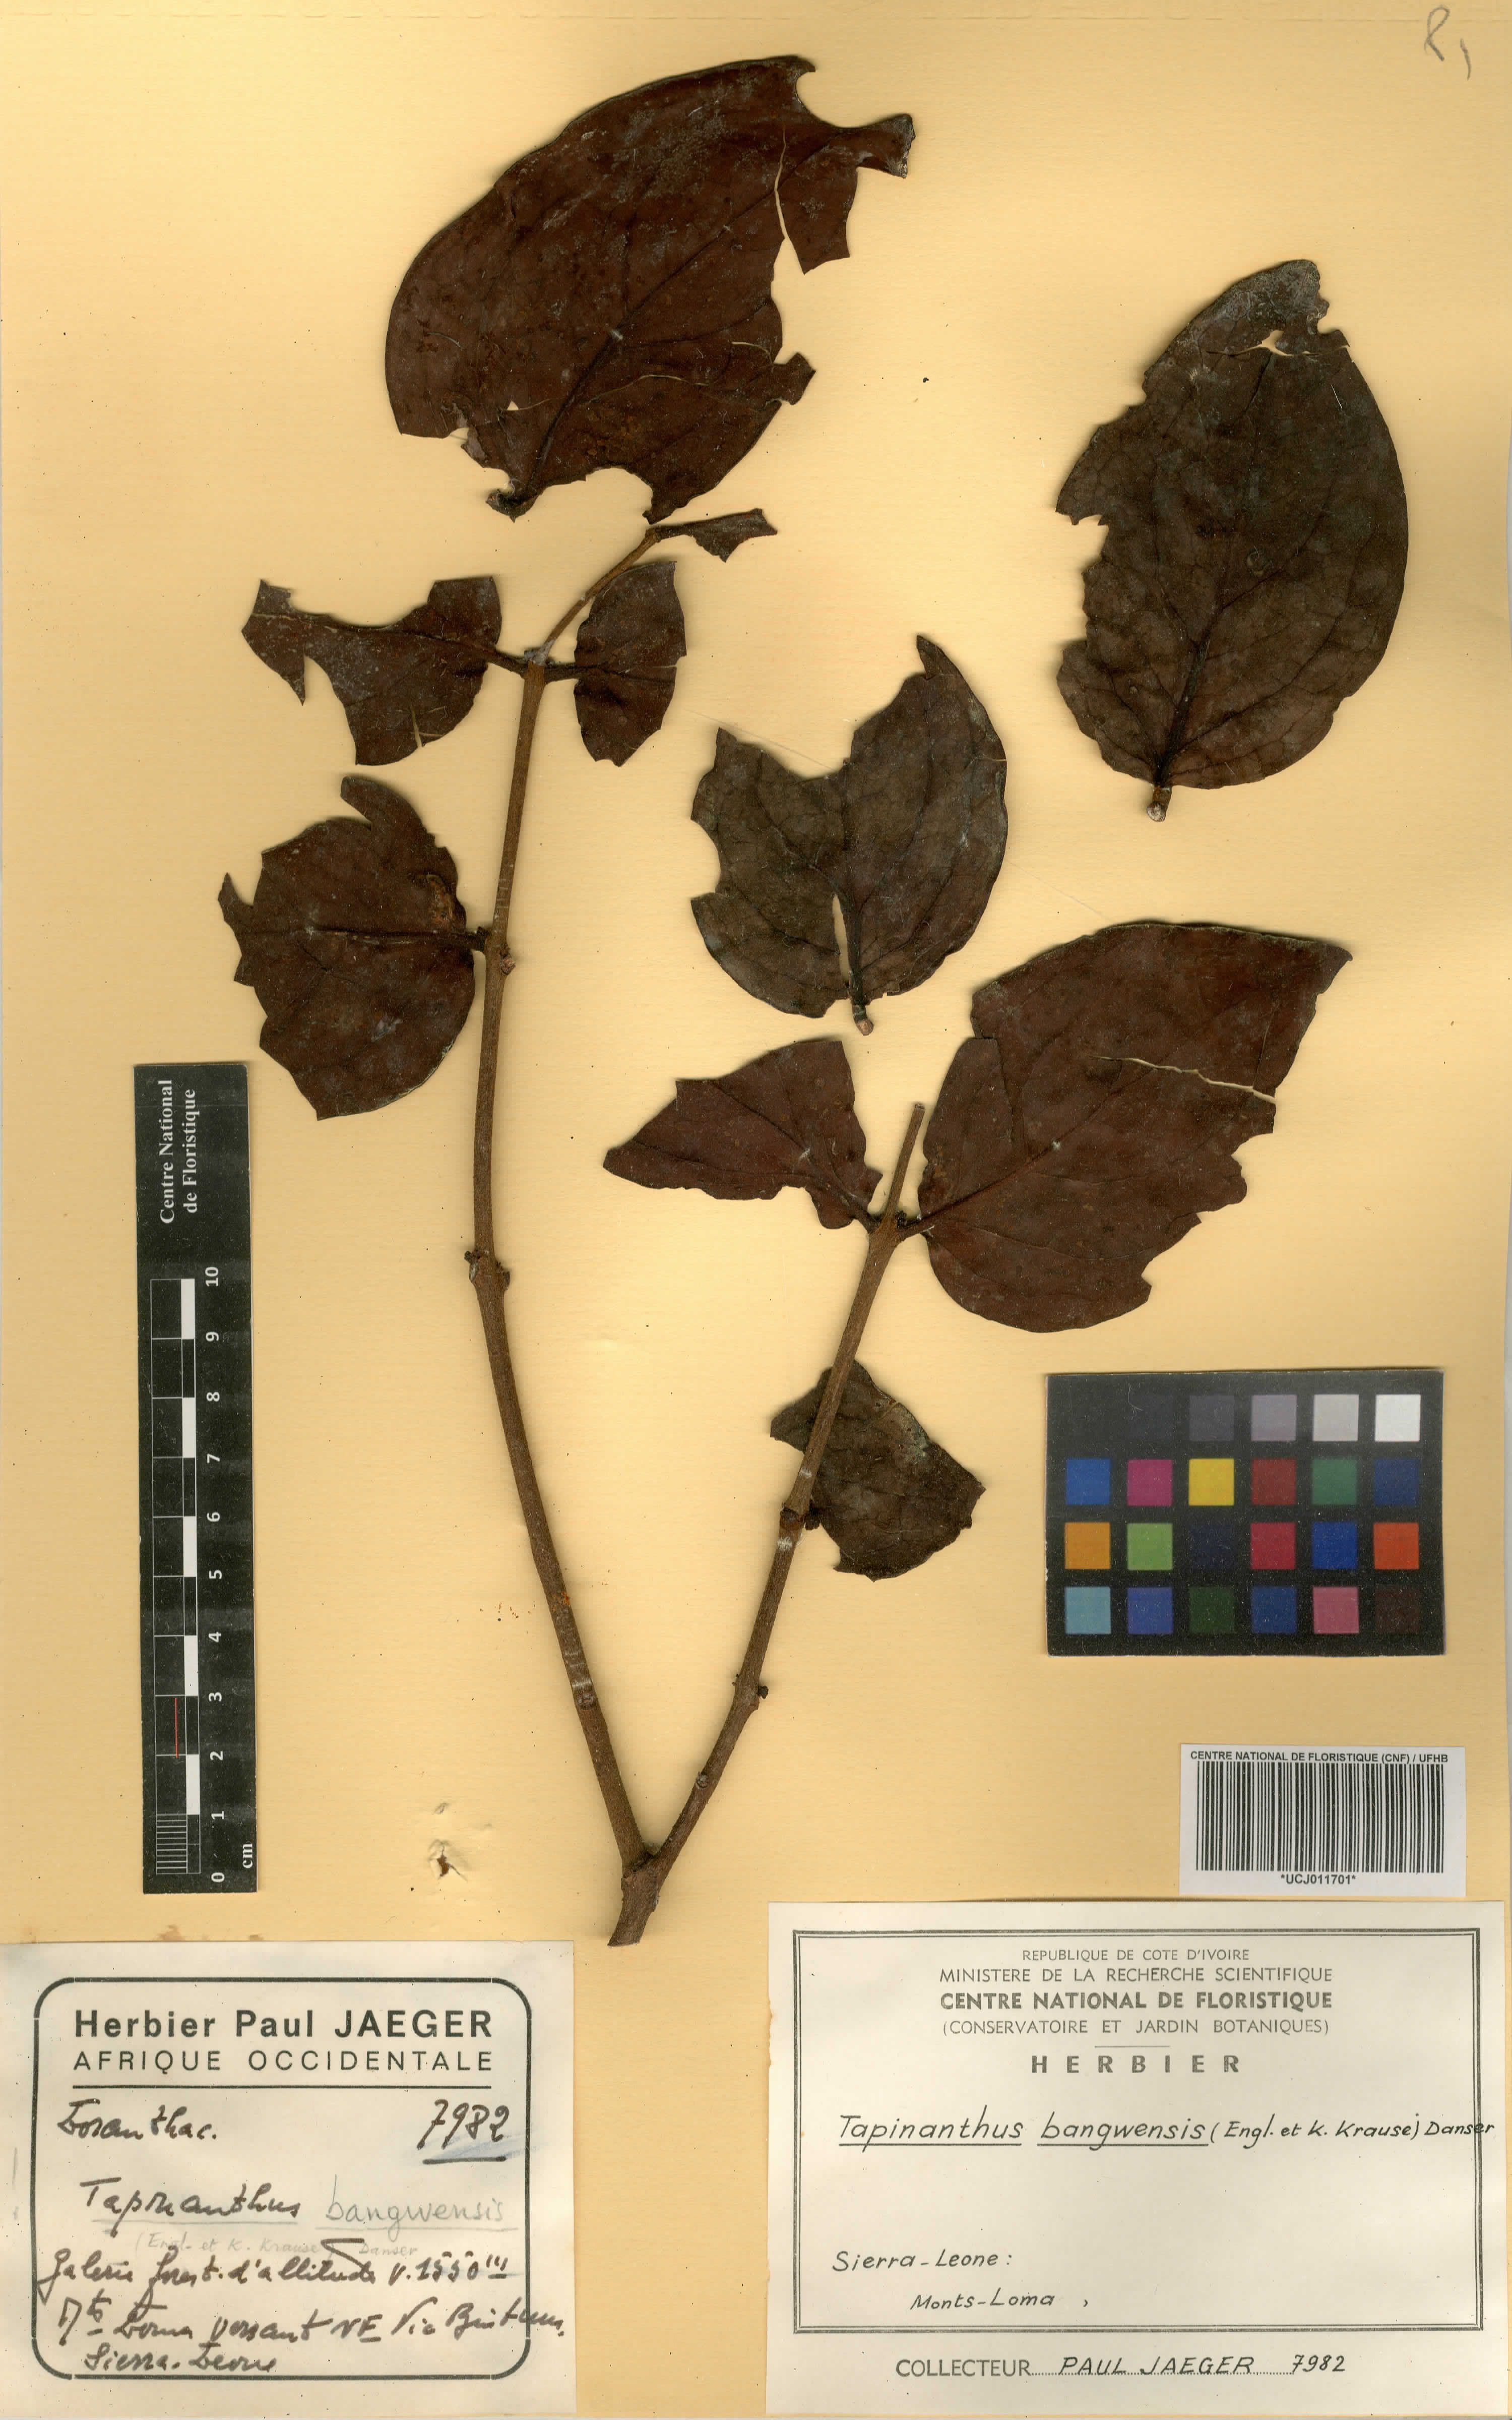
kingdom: Plantae
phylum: Tracheophyta
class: Magnoliopsida
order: Santalales
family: Loranthaceae
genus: Tapinanthus
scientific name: Tapinanthus bangwensis
